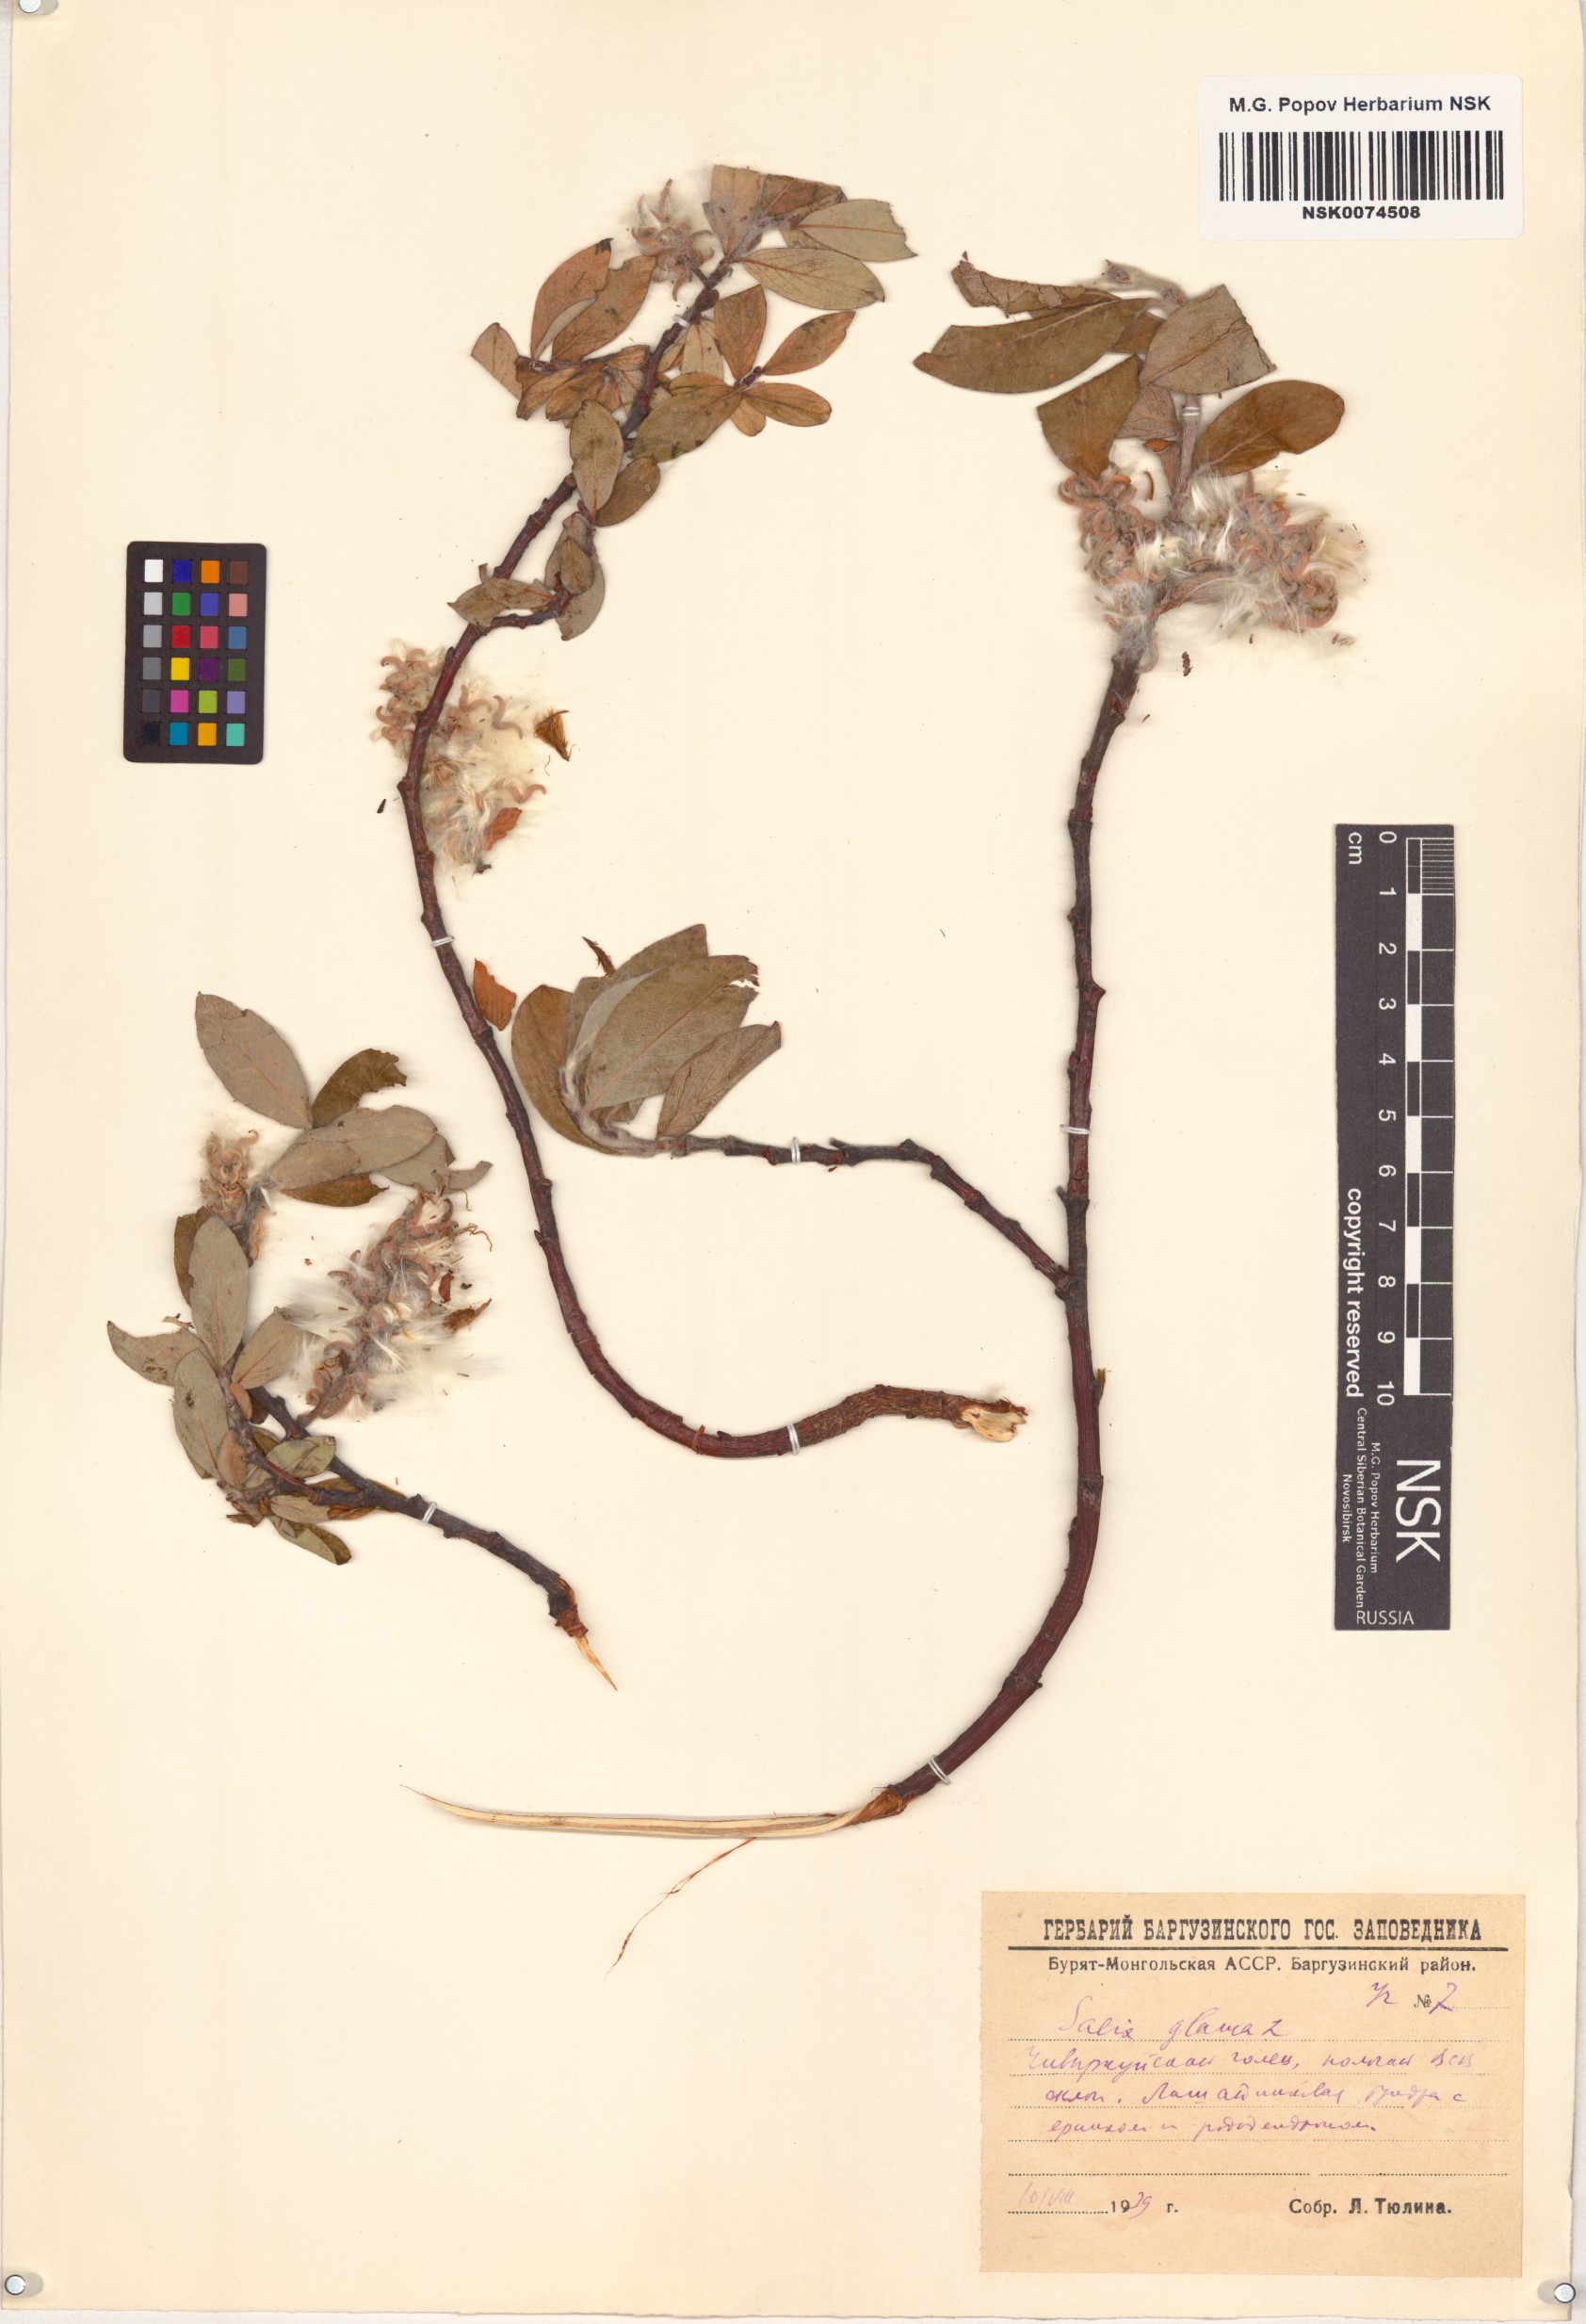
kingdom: Plantae
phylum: Tracheophyta
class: Magnoliopsida
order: Malpighiales
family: Salicaceae
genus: Salix
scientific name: Salix glauca
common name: Glaucous willow
